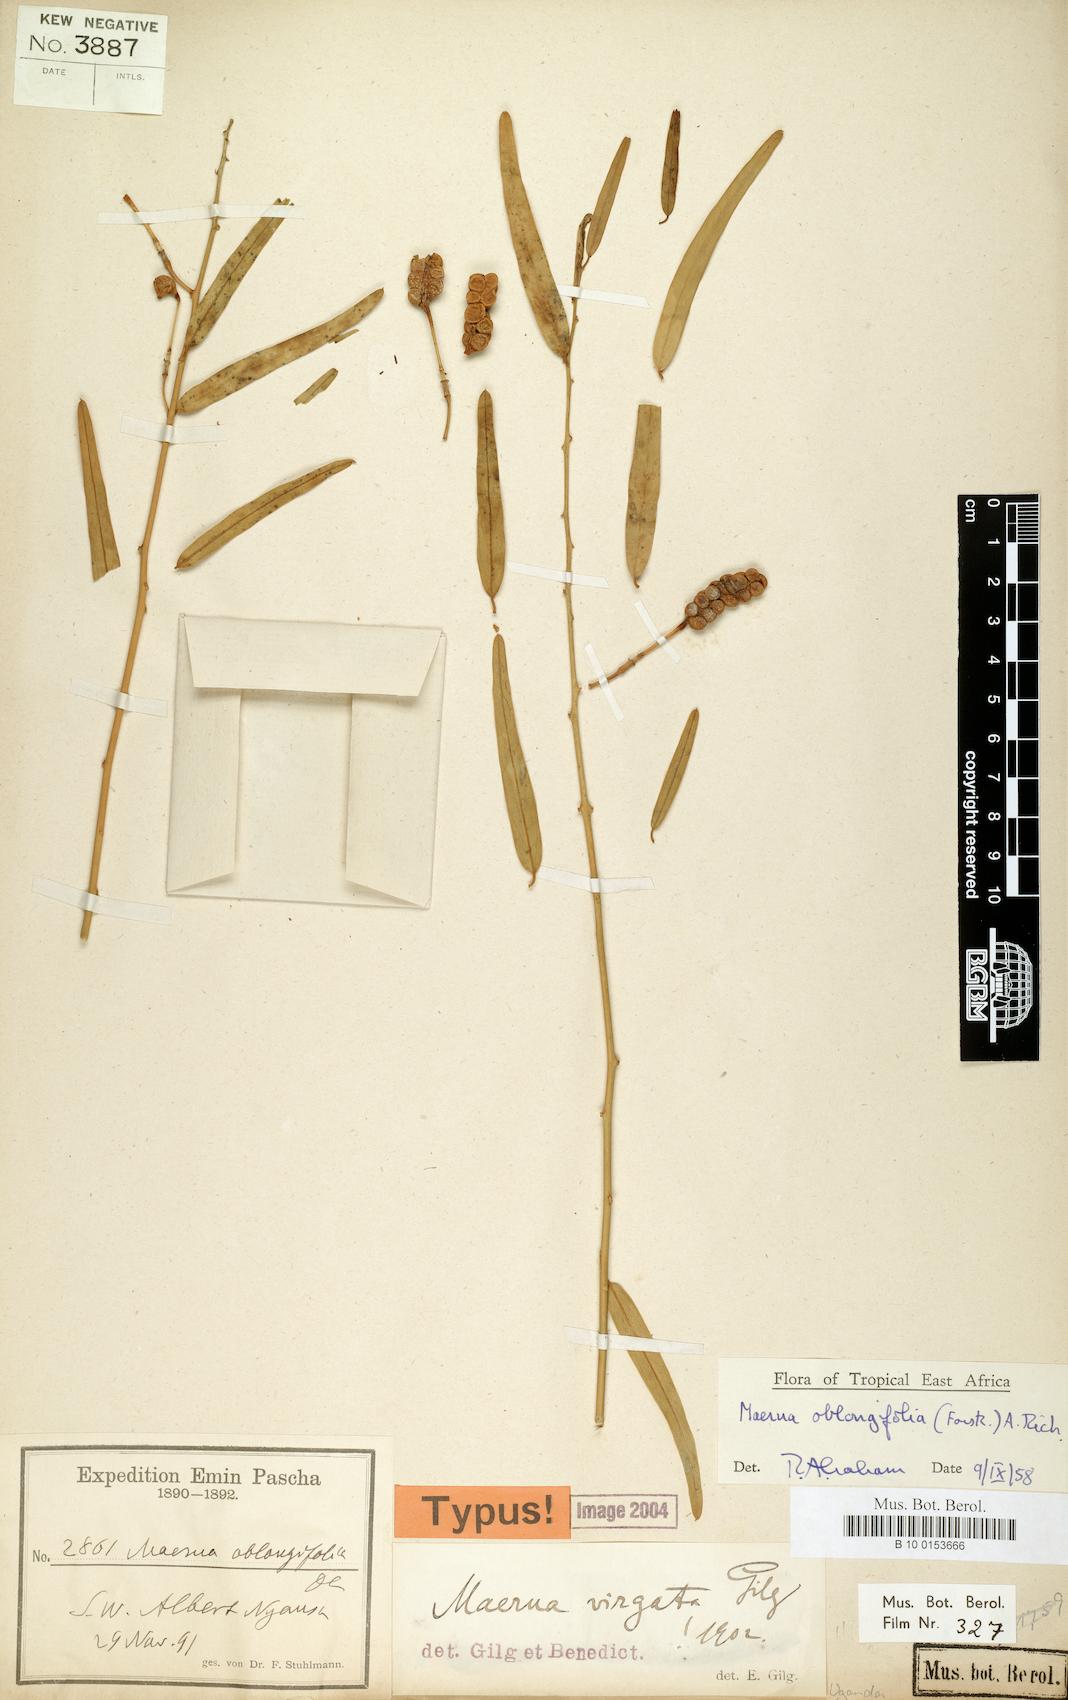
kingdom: Plantae
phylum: Tracheophyta
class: Magnoliopsida
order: Brassicales
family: Capparaceae
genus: Maerua
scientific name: Maerua oblongifolia
